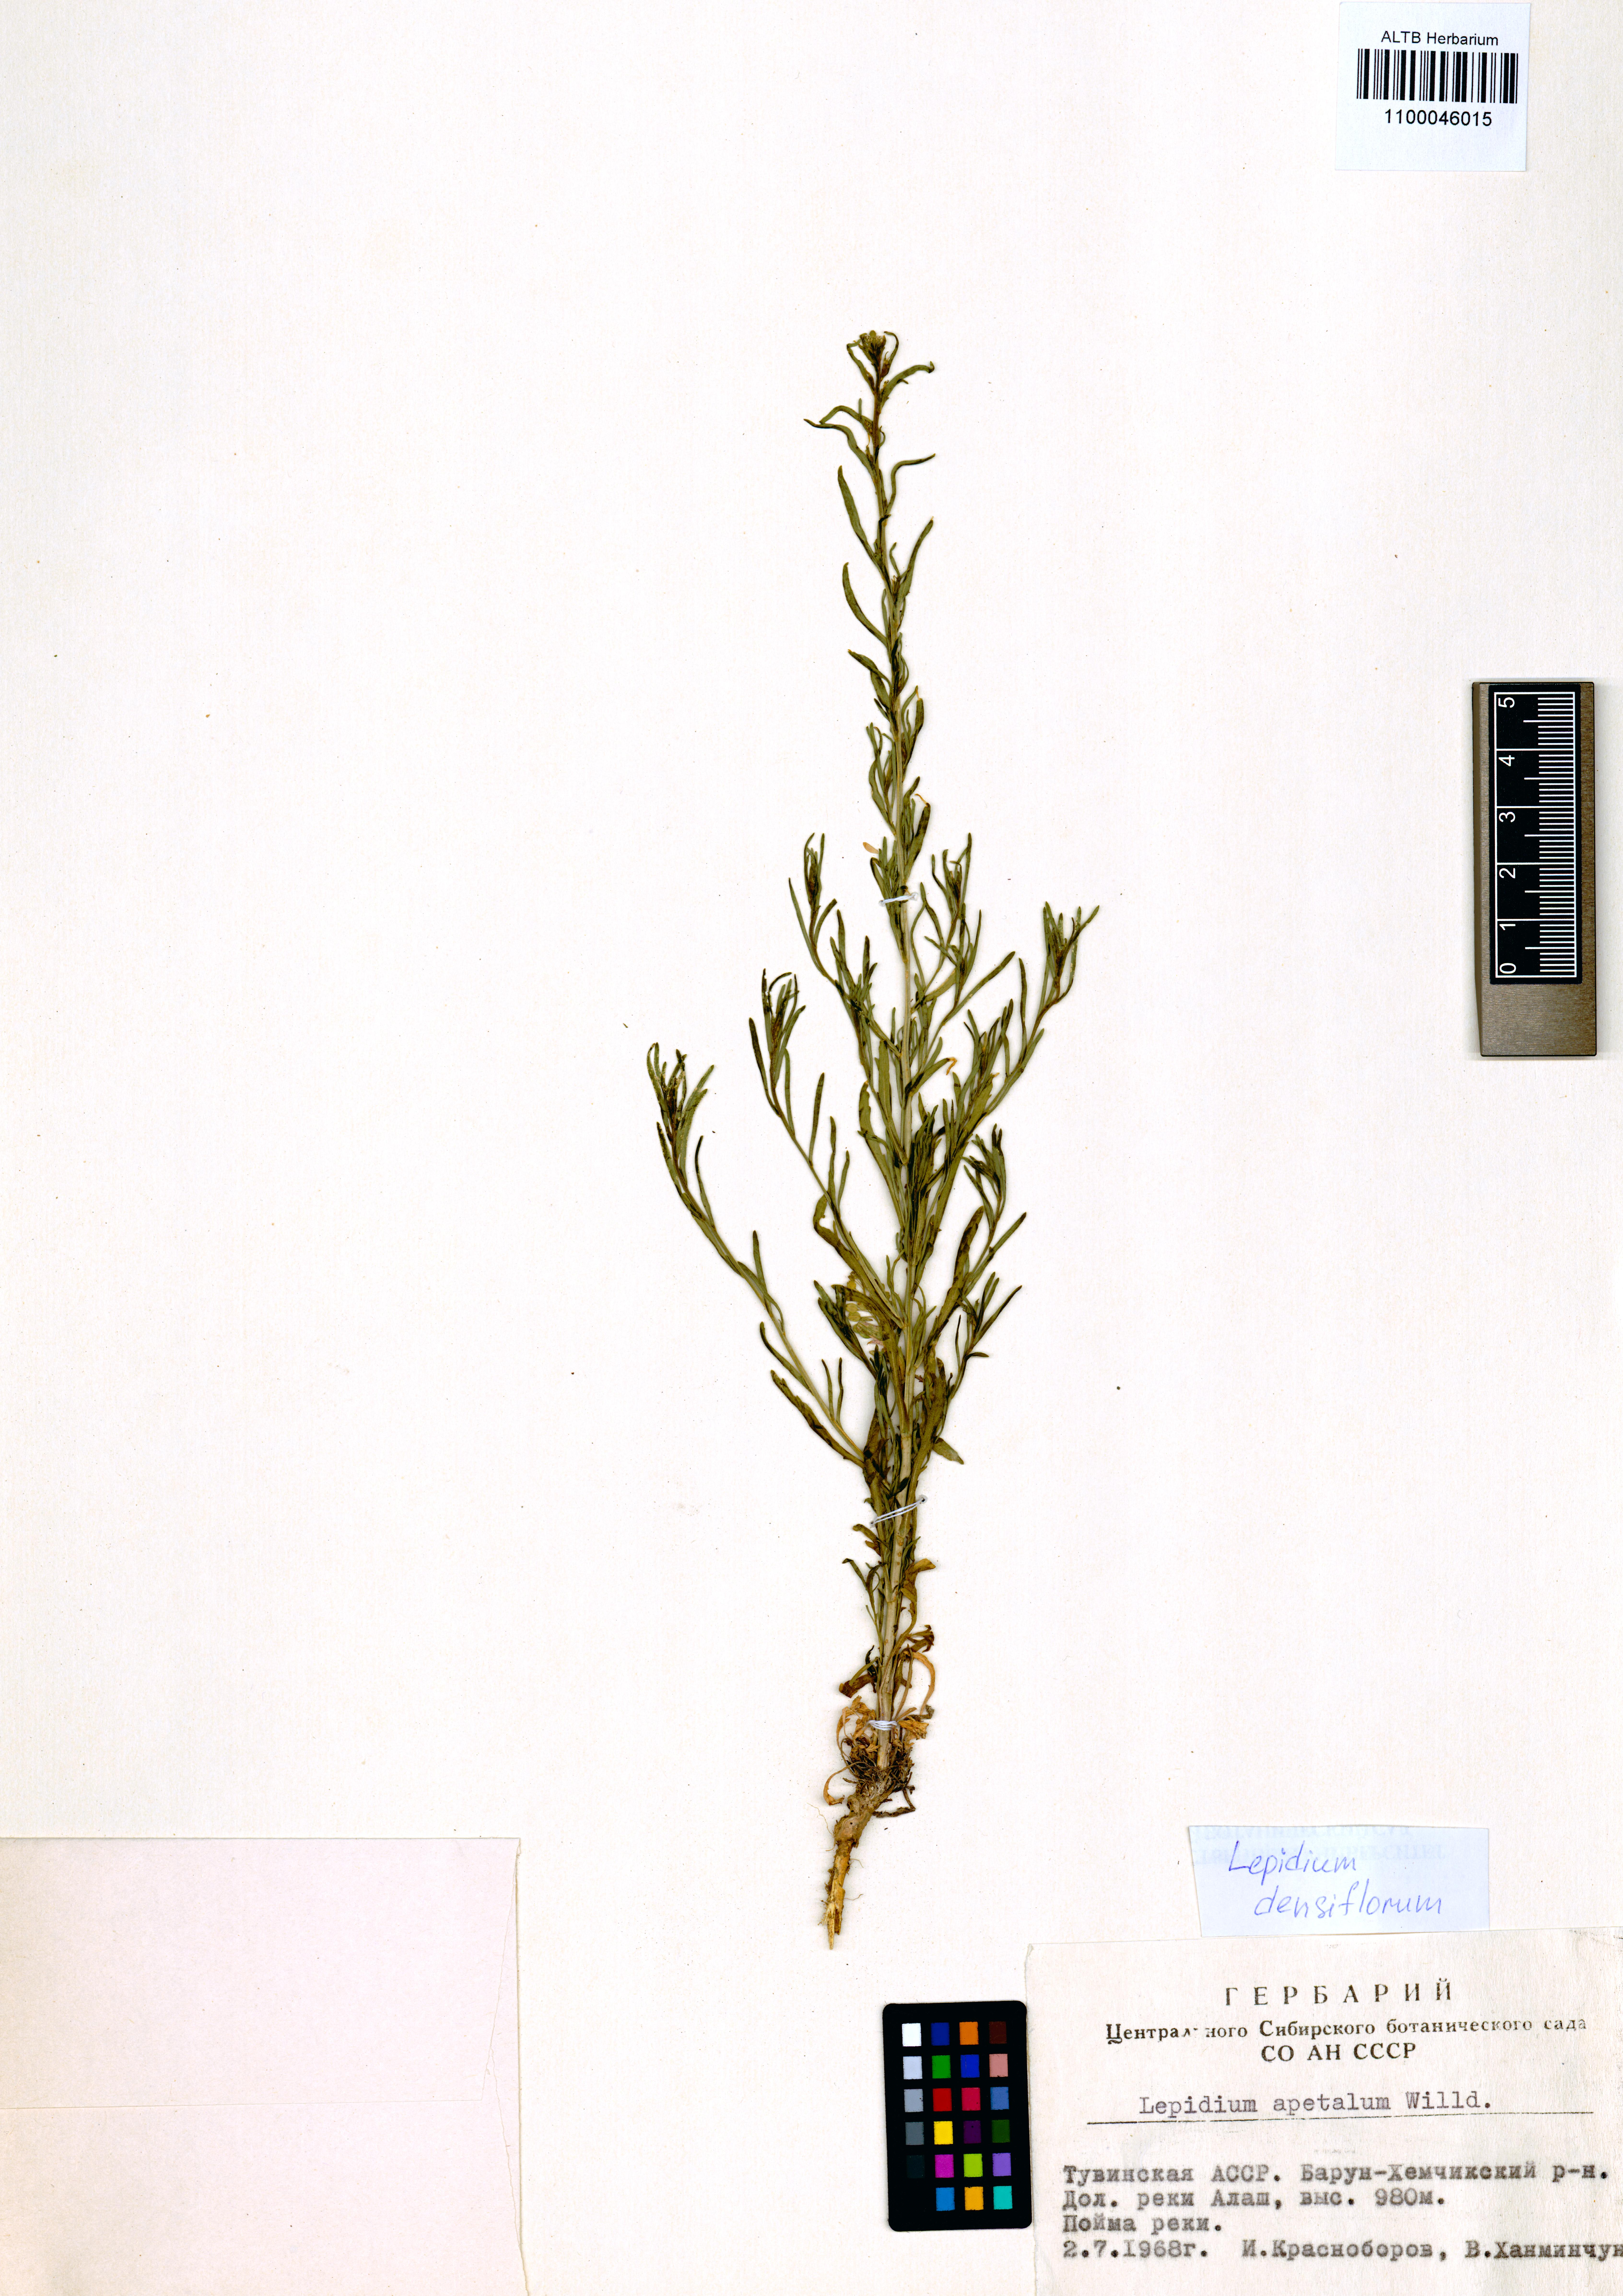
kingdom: Plantae
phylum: Tracheophyta
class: Magnoliopsida
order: Brassicales
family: Brassicaceae
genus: Lepidium
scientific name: Lepidium densiflorum
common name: Miner's pepperwort
